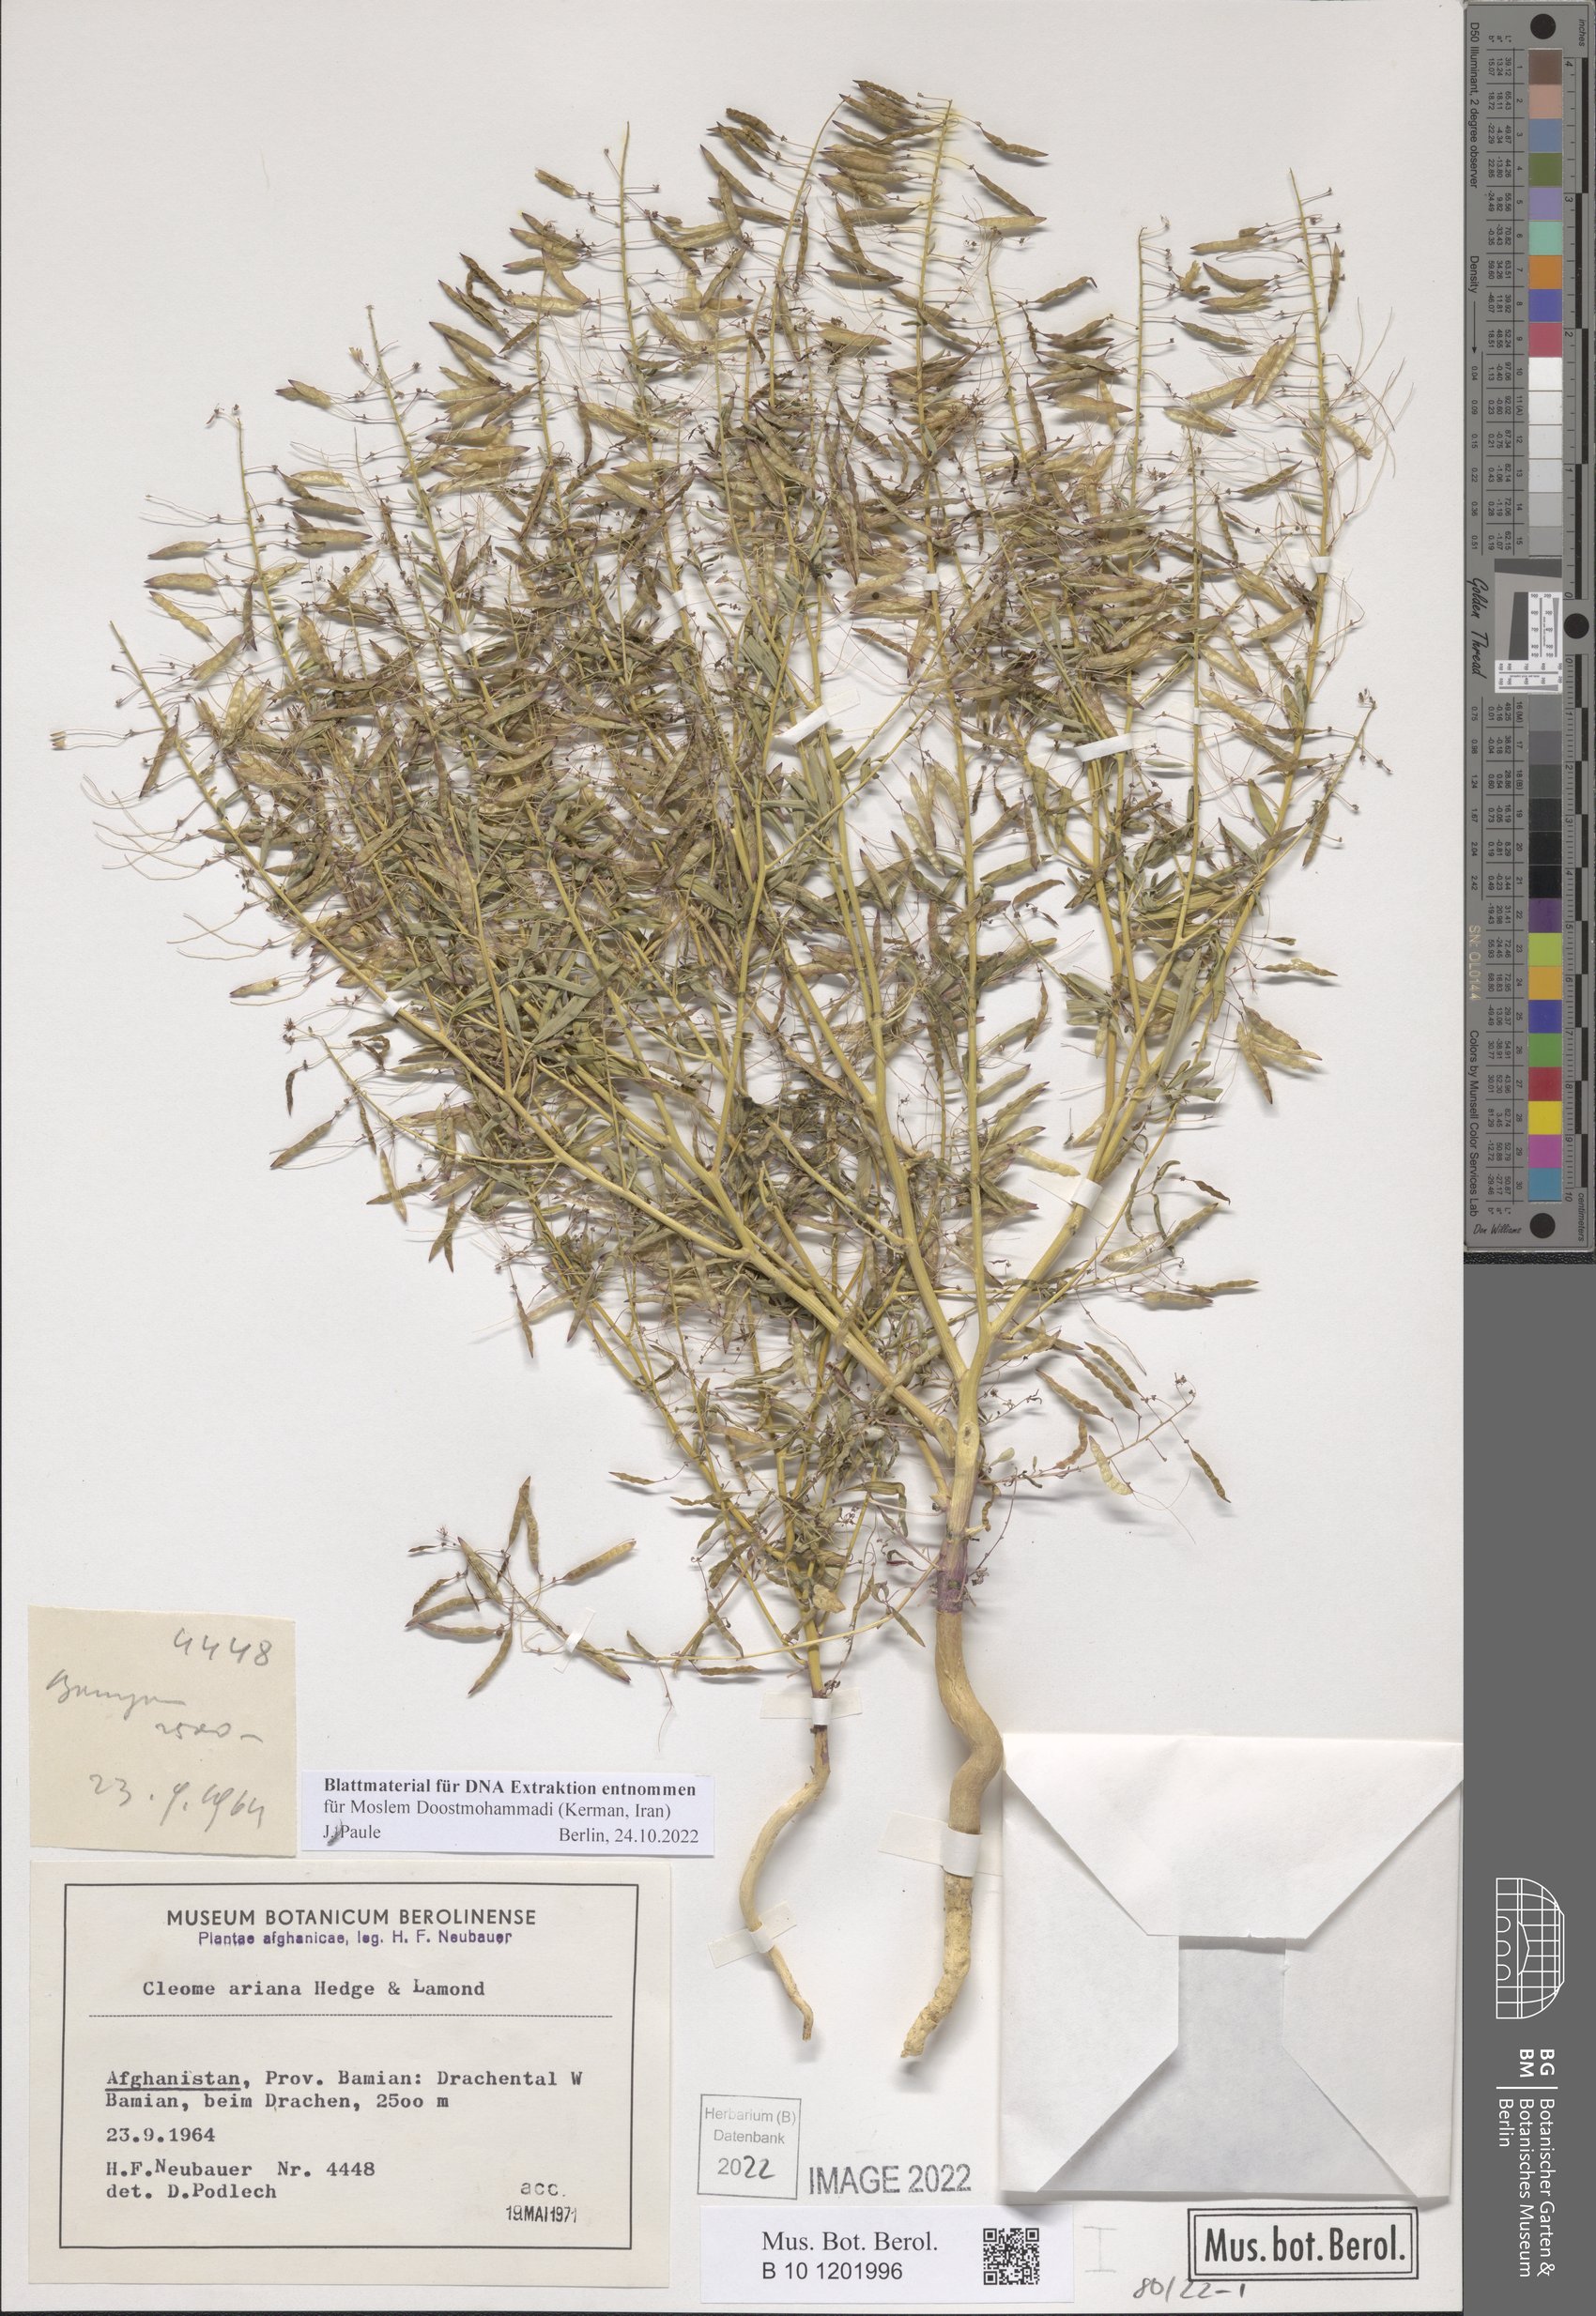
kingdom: Plantae
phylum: Tracheophyta
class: Magnoliopsida
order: Brassicales
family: Cleomaceae
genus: Cleome
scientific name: Cleome ariana
